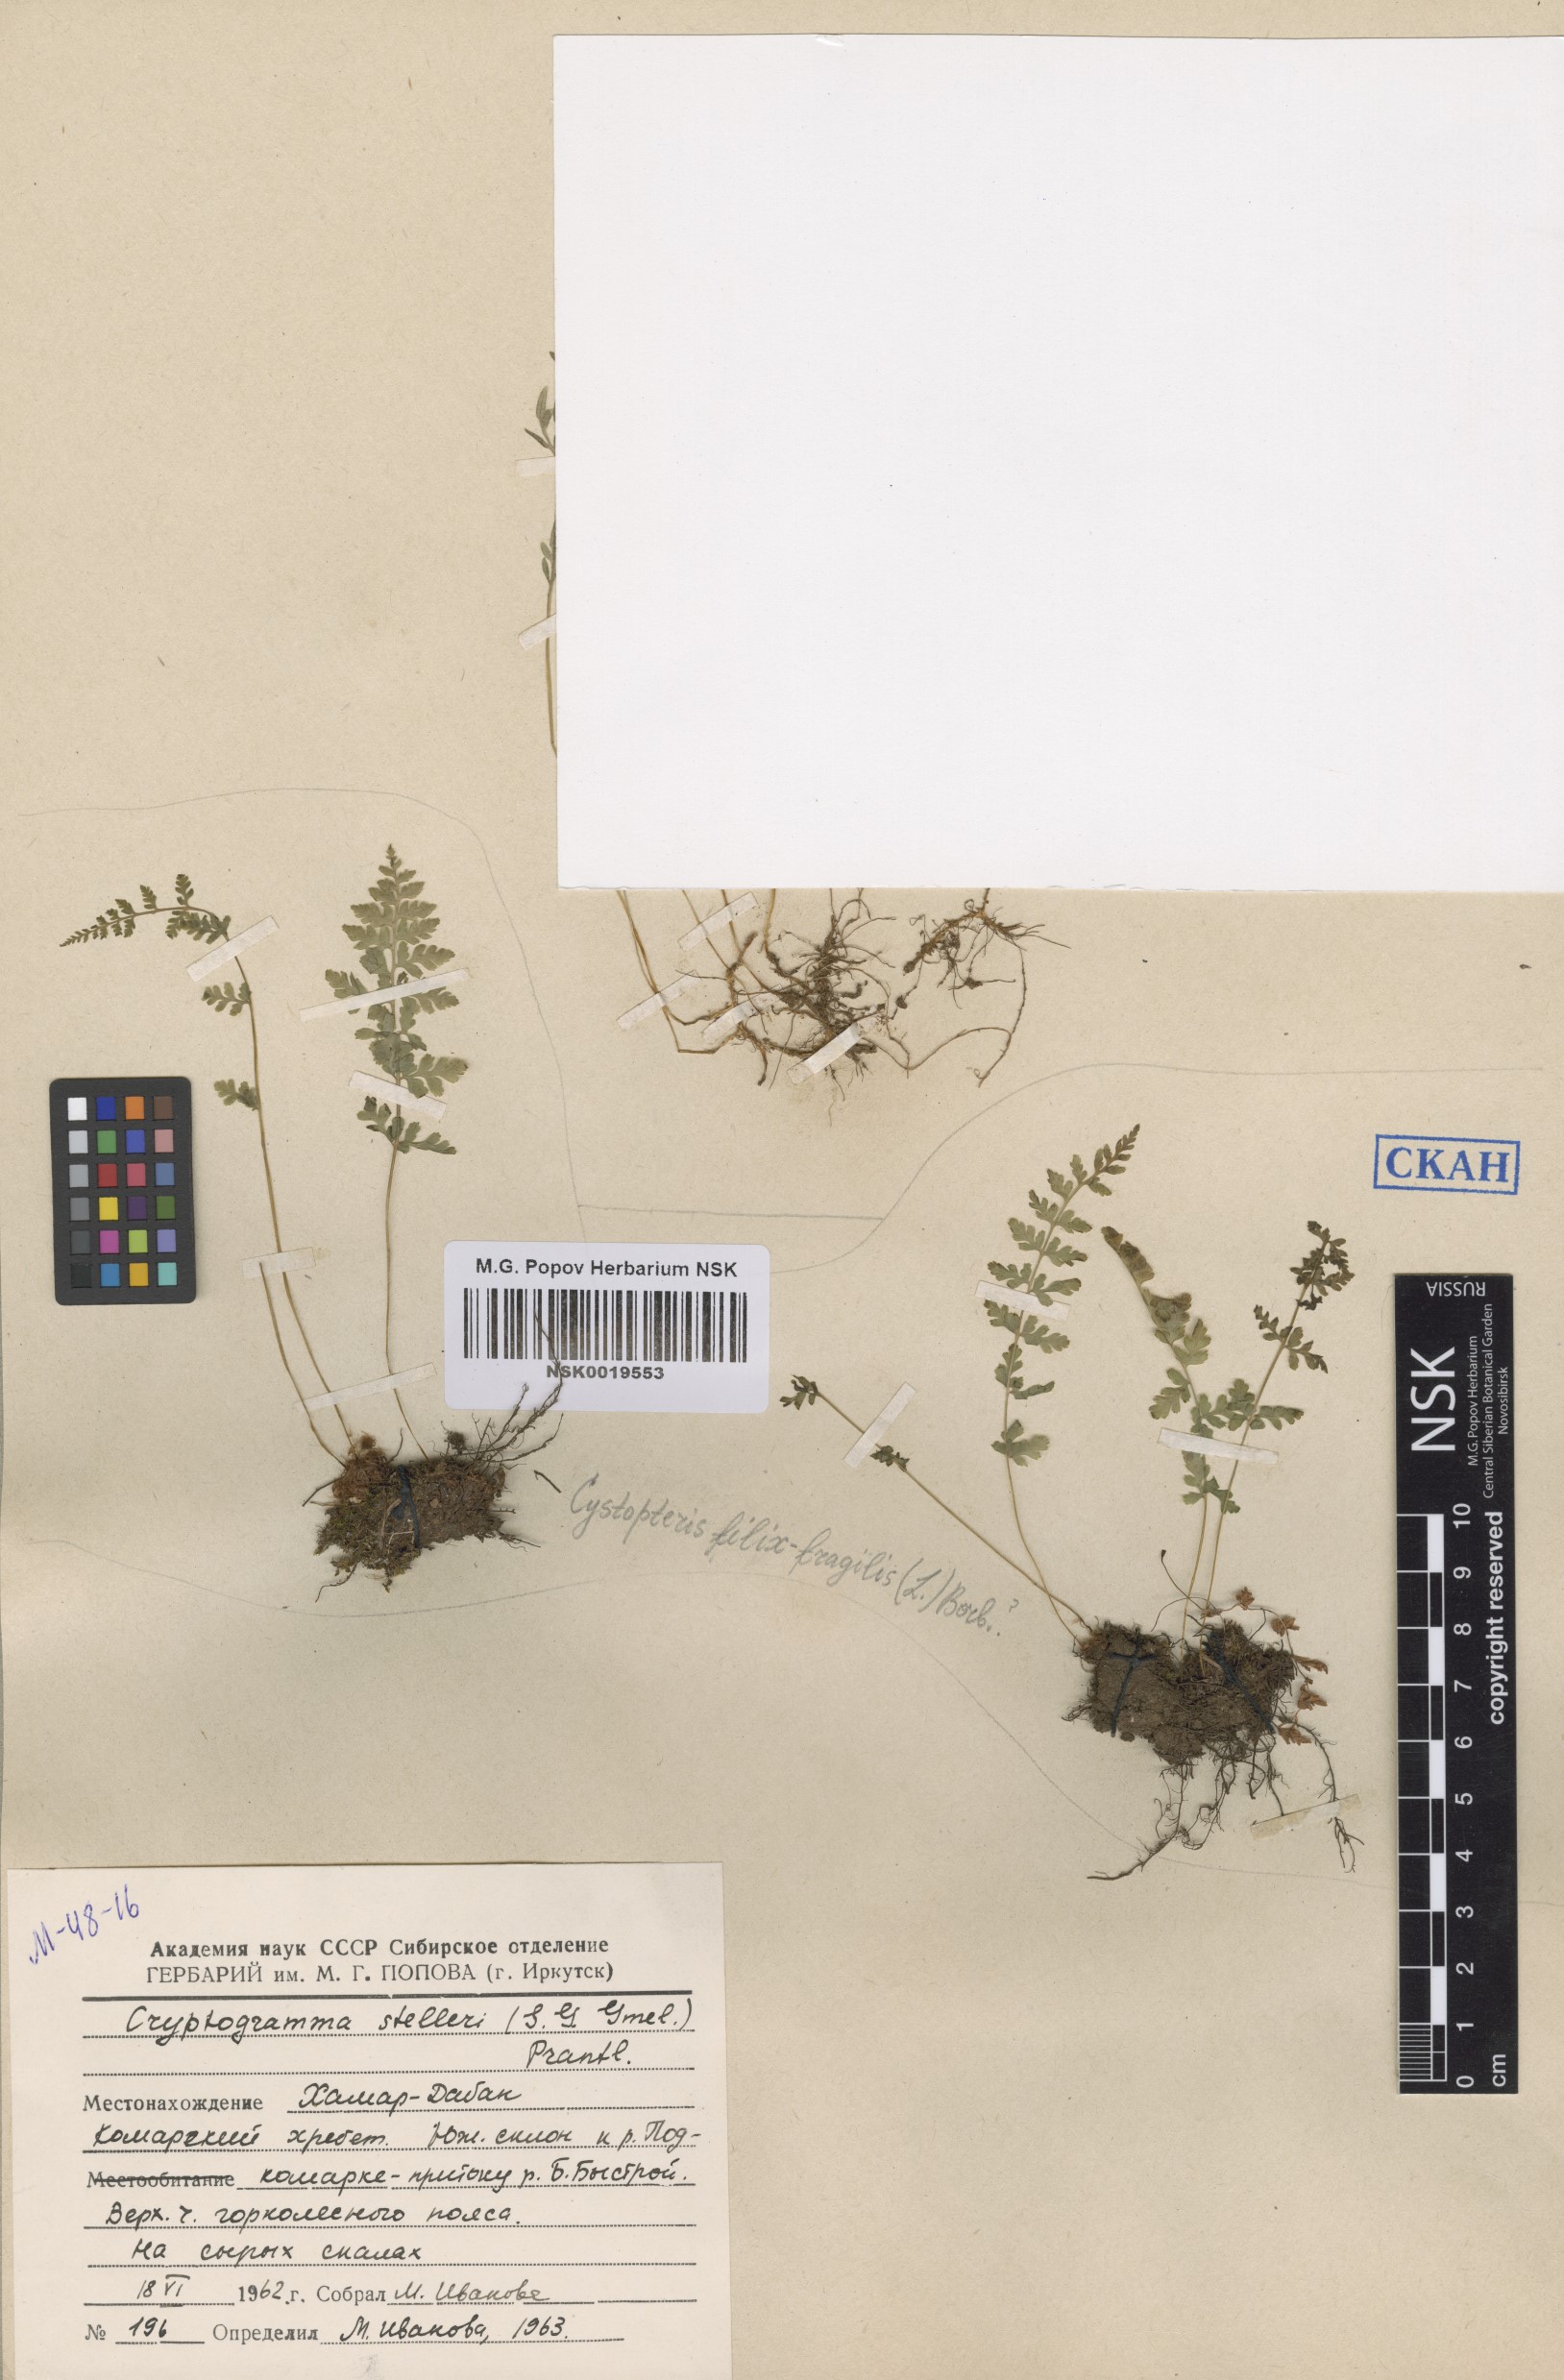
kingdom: Plantae
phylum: Tracheophyta
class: Polypodiopsida
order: Polypodiales
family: Cystopteridaceae
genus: Cystopteris
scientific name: Cystopteris fragilis
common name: Brittle bladder fern
